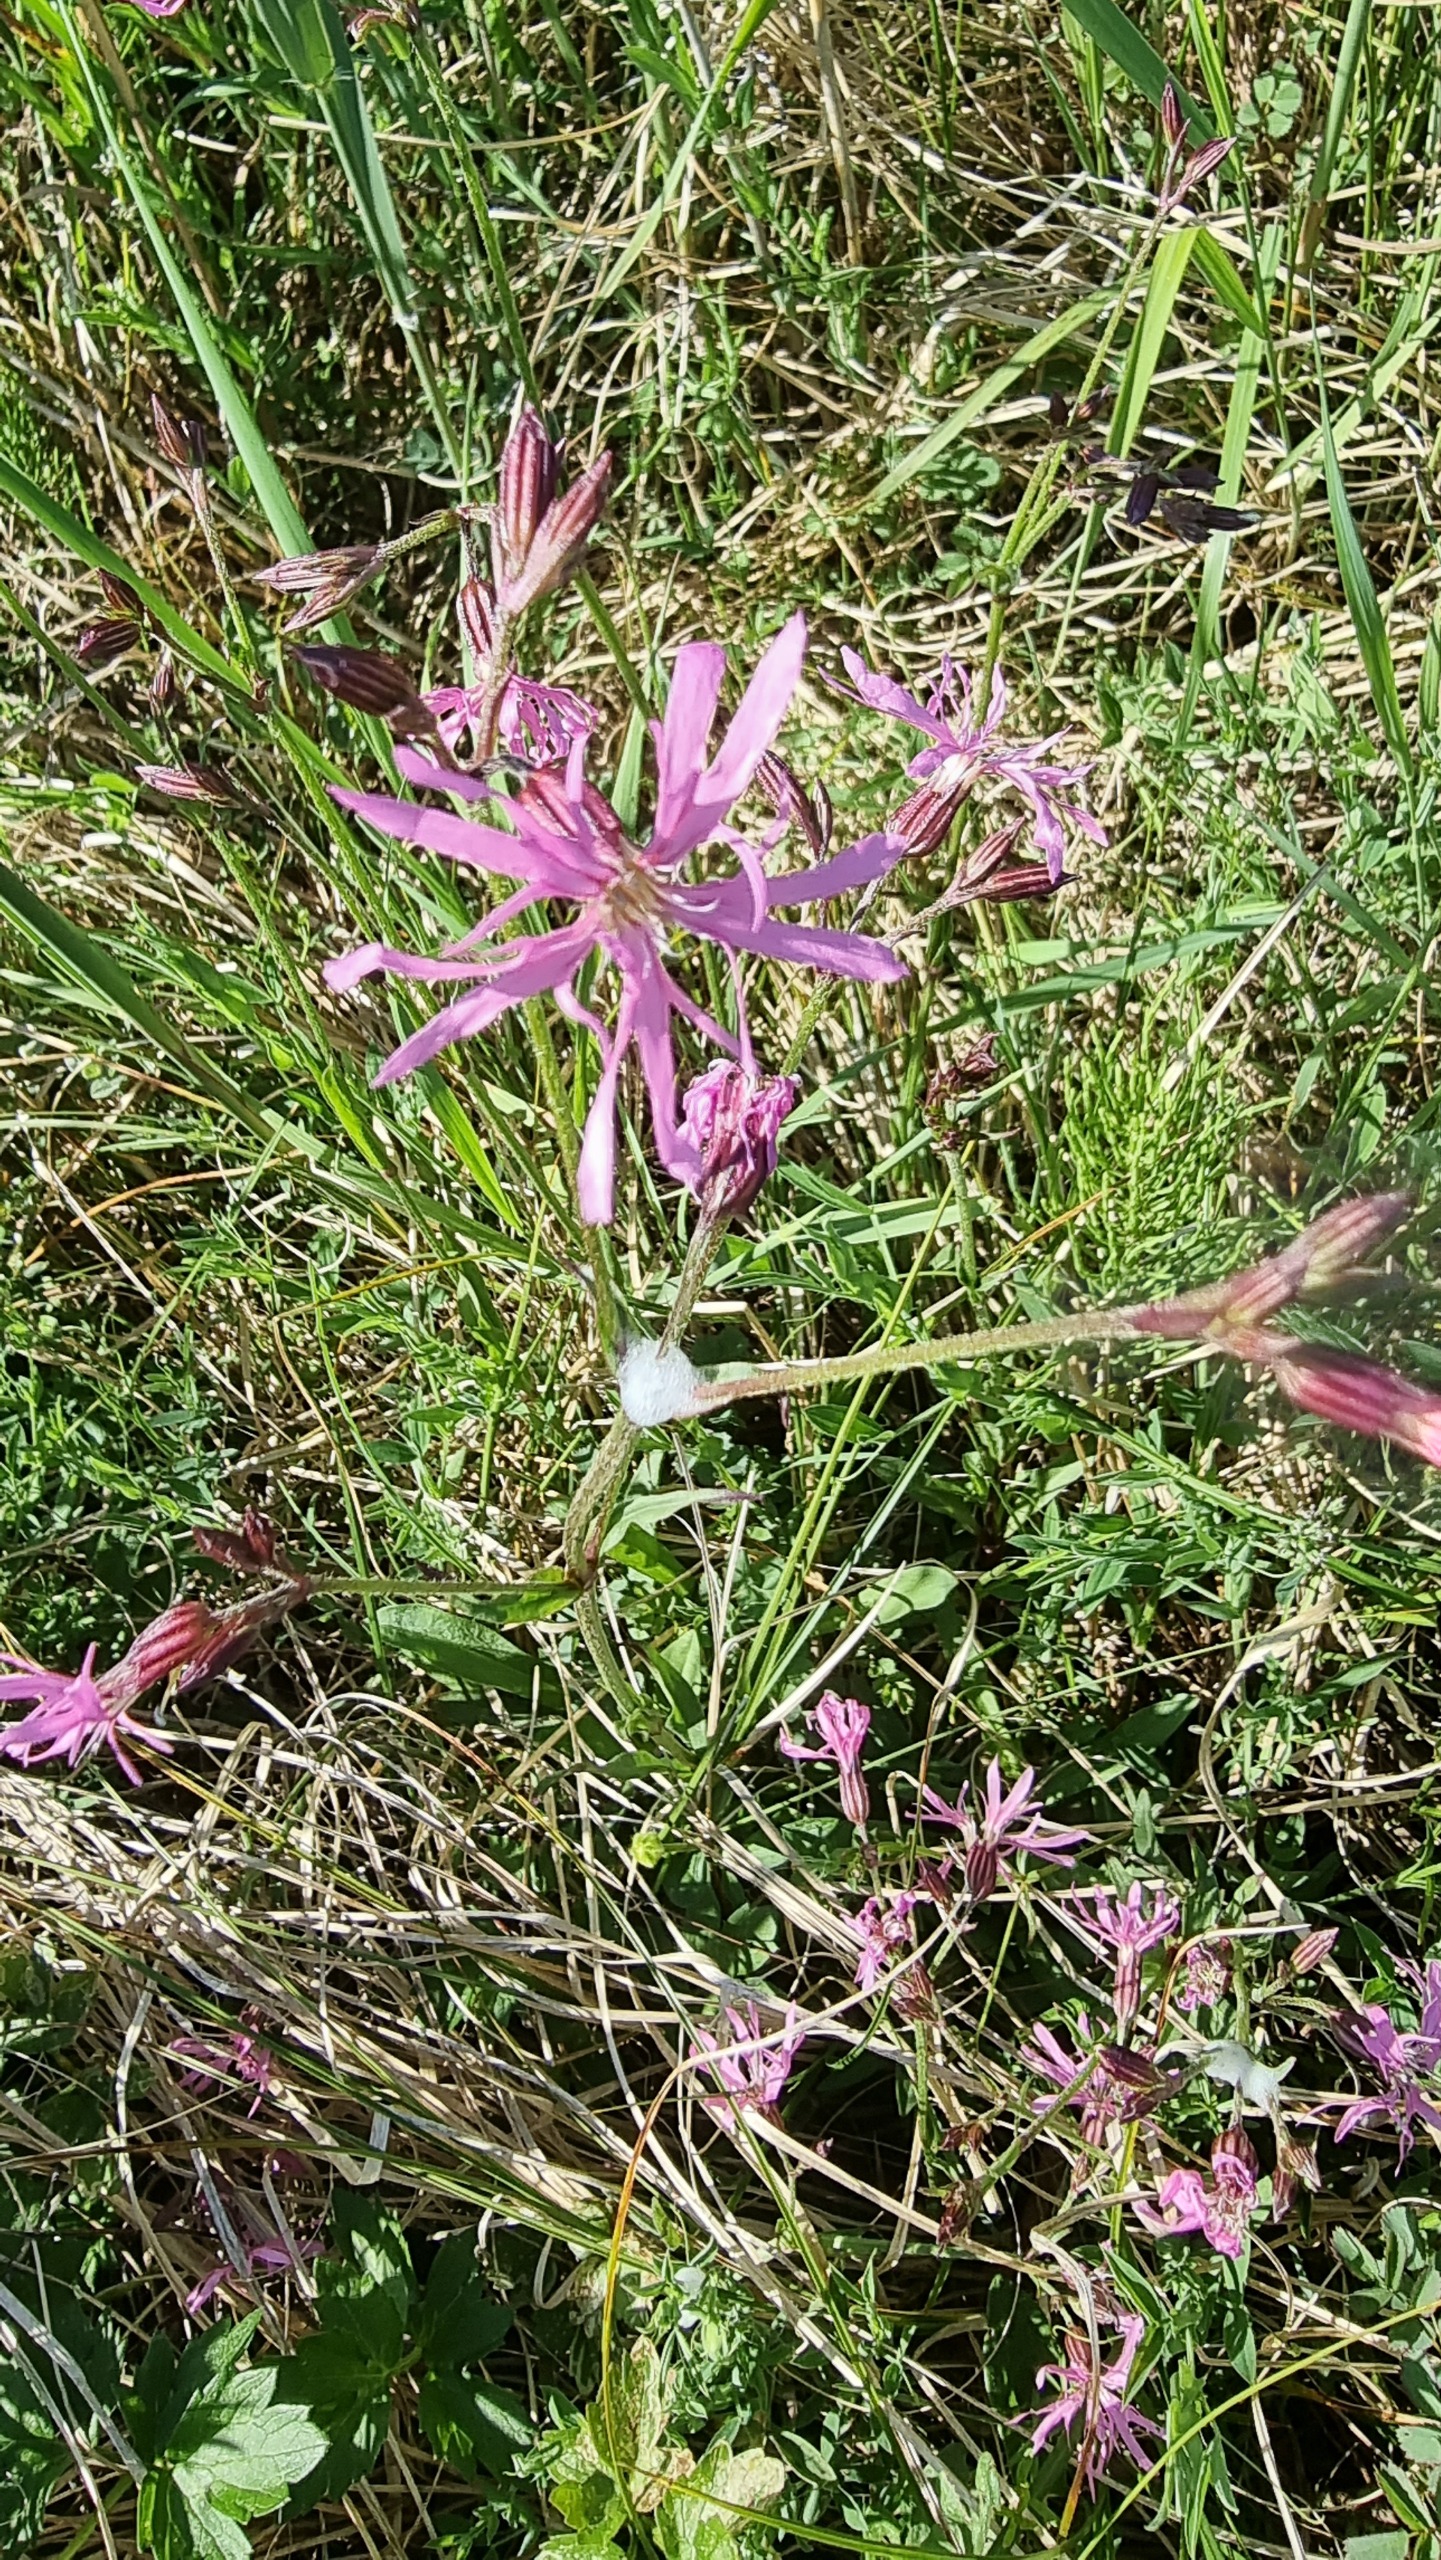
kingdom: Plantae
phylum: Tracheophyta
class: Magnoliopsida
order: Caryophyllales
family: Caryophyllaceae
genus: Silene
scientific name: Silene flos-cuculi
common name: Trævlekrone
